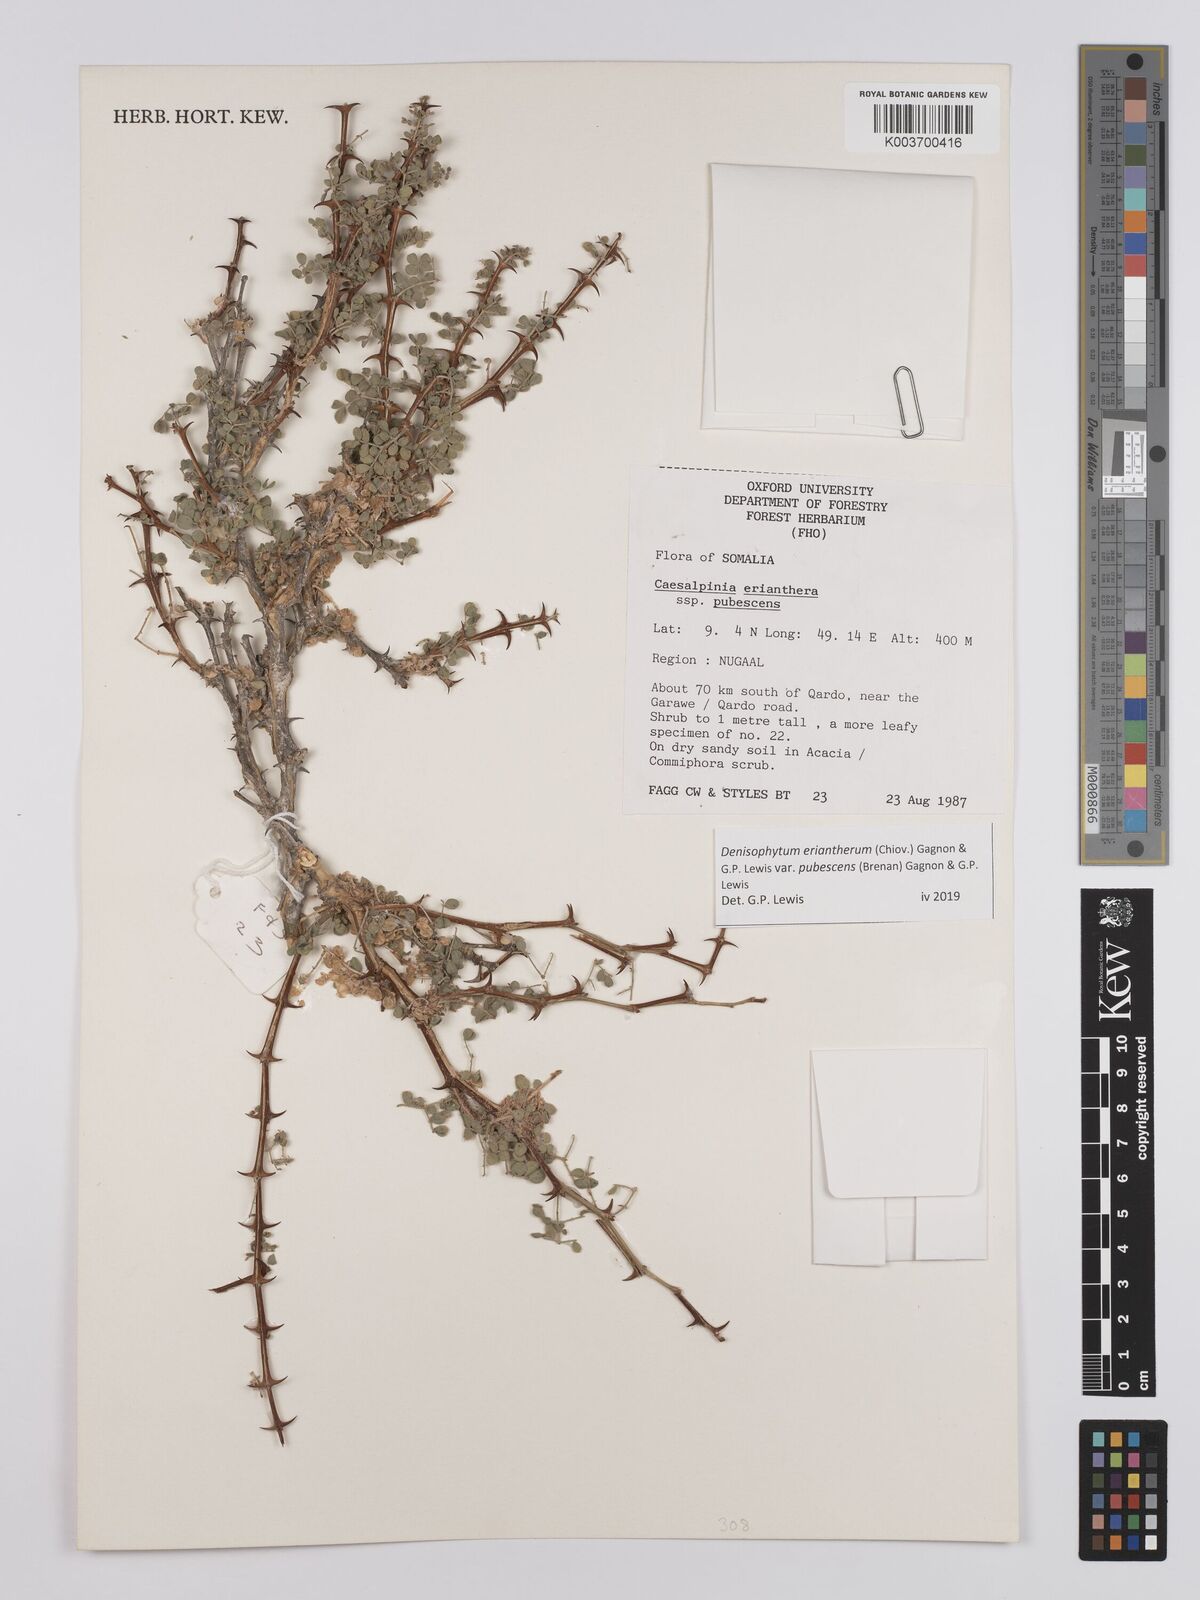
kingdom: Plantae
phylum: Tracheophyta
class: Magnoliopsida
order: Fabales
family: Fabaceae
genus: Denisophytum
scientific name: Denisophytum eriantherum
